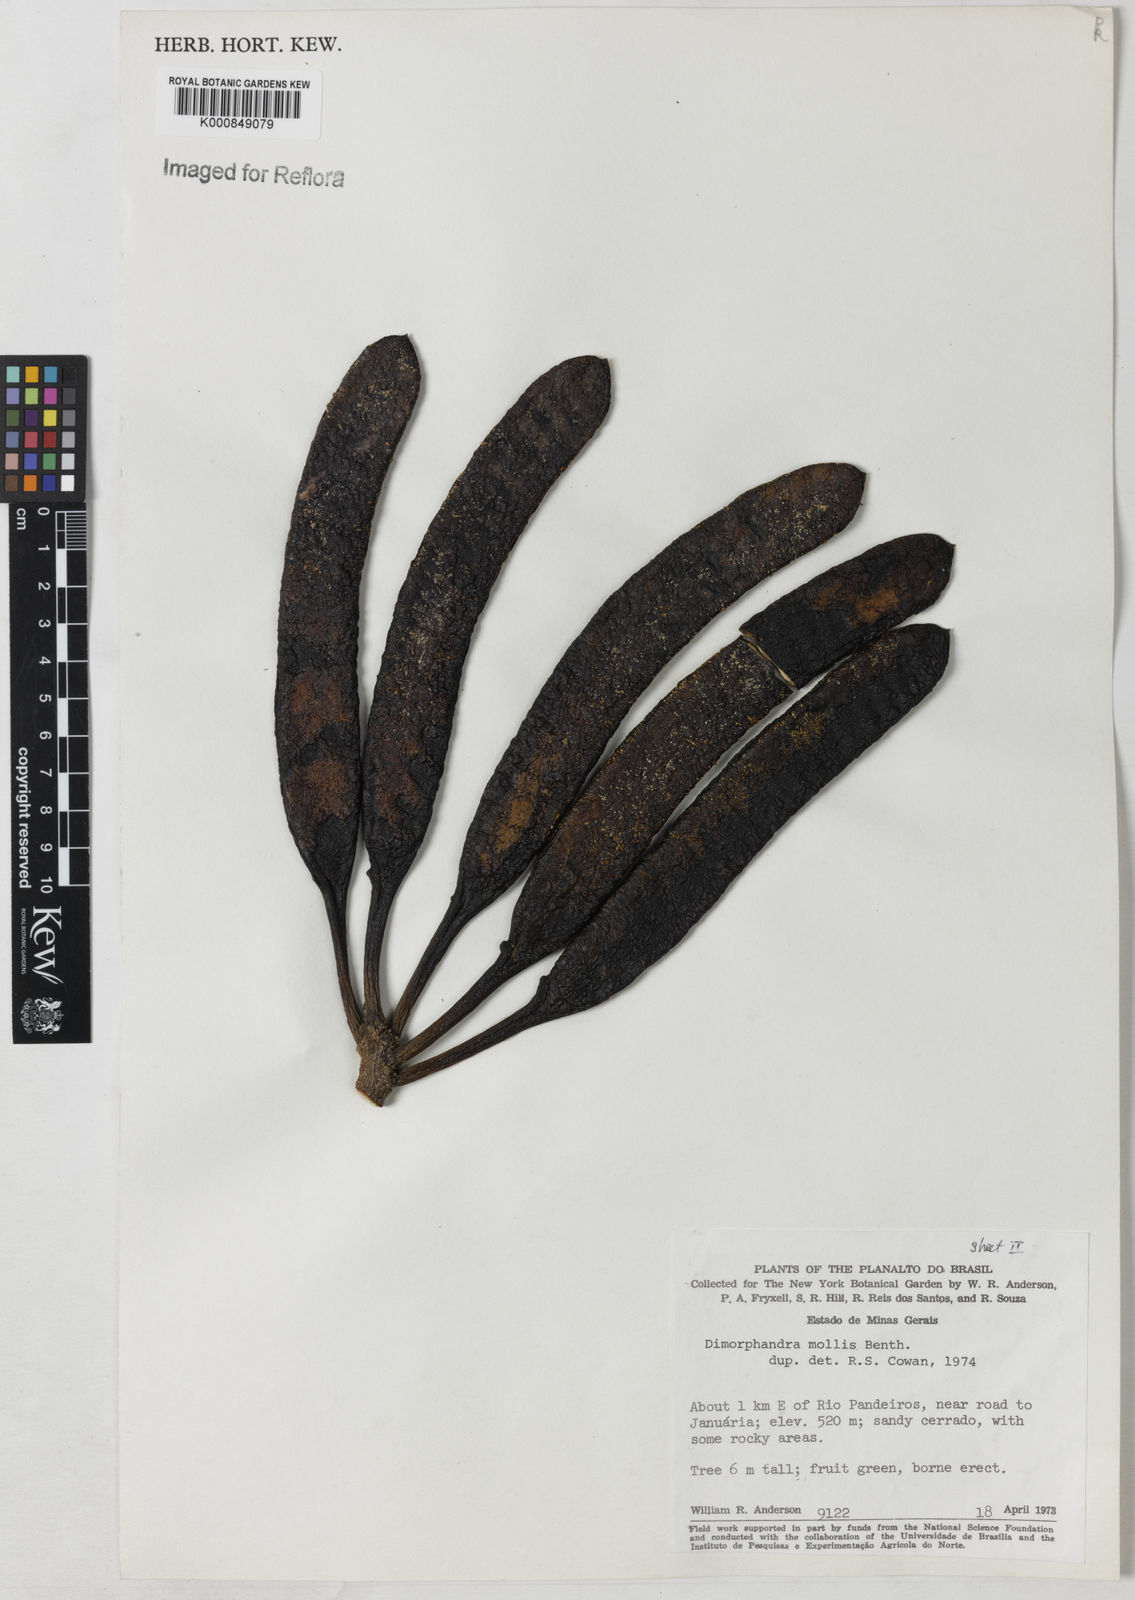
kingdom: Plantae
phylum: Tracheophyta
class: Magnoliopsida
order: Fabales
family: Fabaceae
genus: Dimorphandra
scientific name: Dimorphandra mollis
